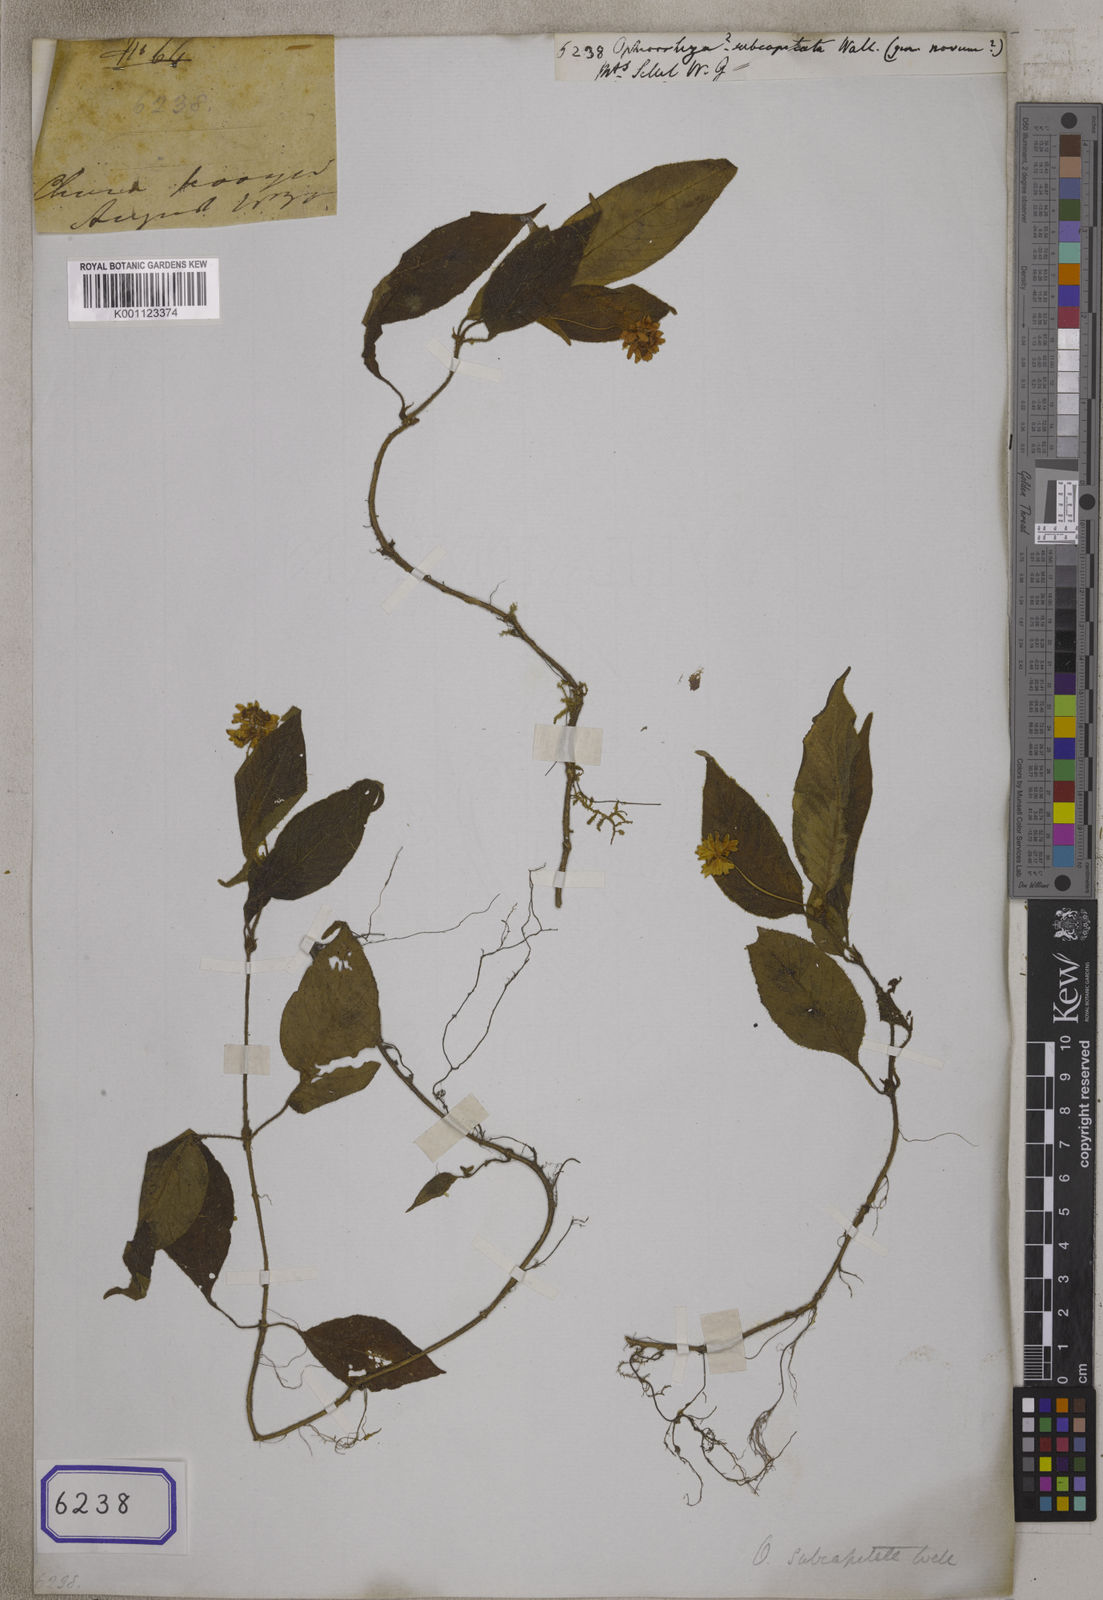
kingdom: Plantae
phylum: Tracheophyta
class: Magnoliopsida
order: Gentianales
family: Rubiaceae
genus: Ophiorrhiza
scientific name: Ophiorrhiza
